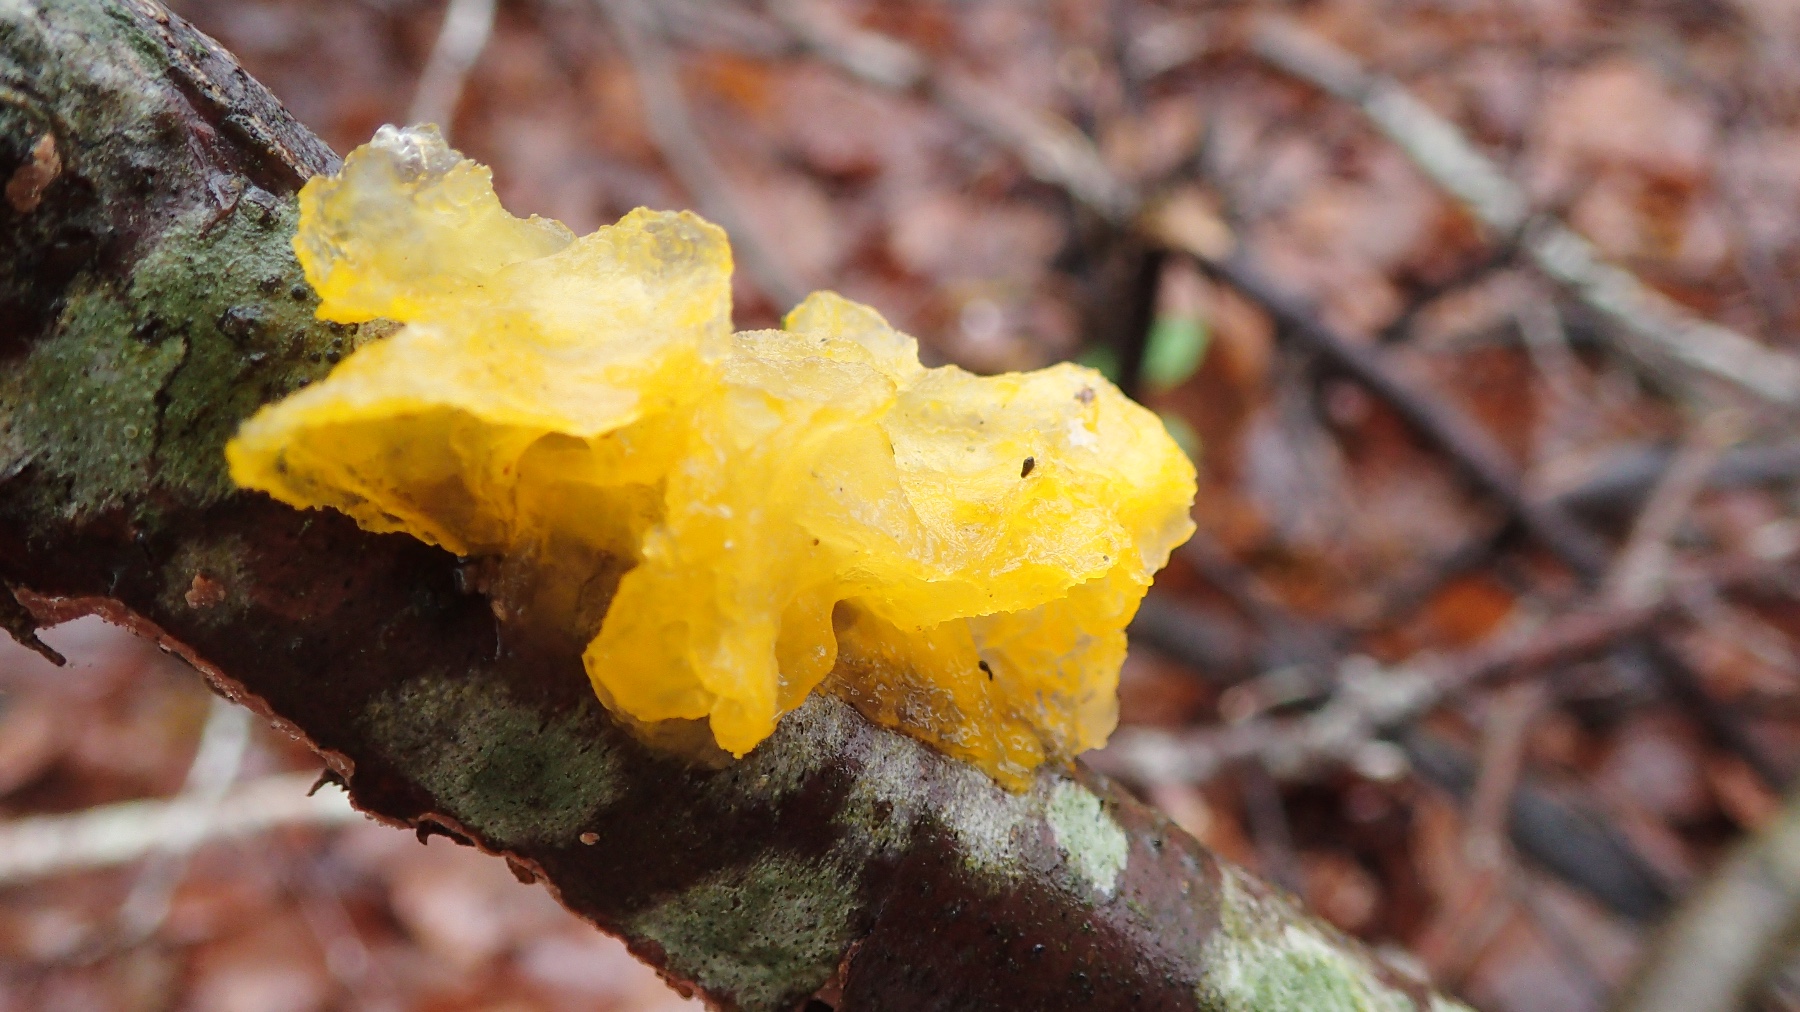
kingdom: Fungi
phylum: Basidiomycota
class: Tremellomycetes
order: Tremellales
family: Tremellaceae
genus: Tremella
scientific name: Tremella mesenterica
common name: gul bævresvamp
